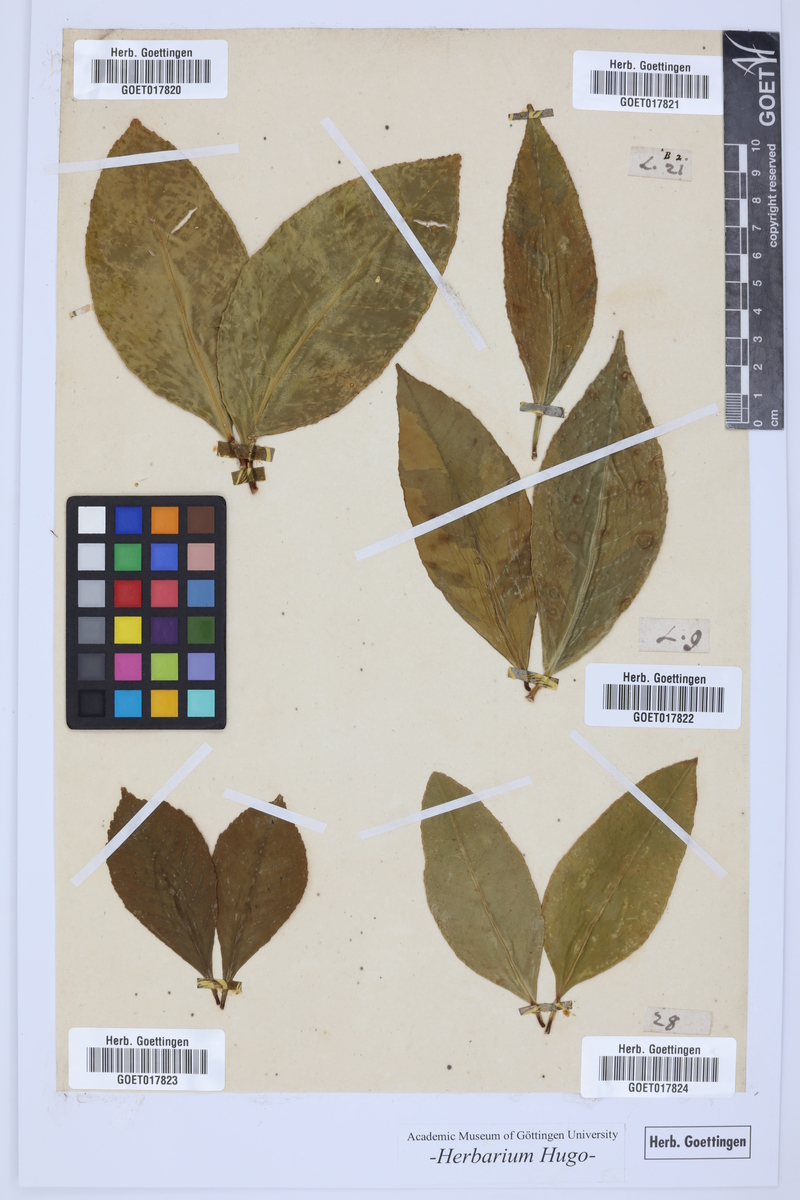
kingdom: Plantae
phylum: Tracheophyta
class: Magnoliopsida
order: Sapindales
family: Rutaceae
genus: Citrus
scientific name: Citrus
